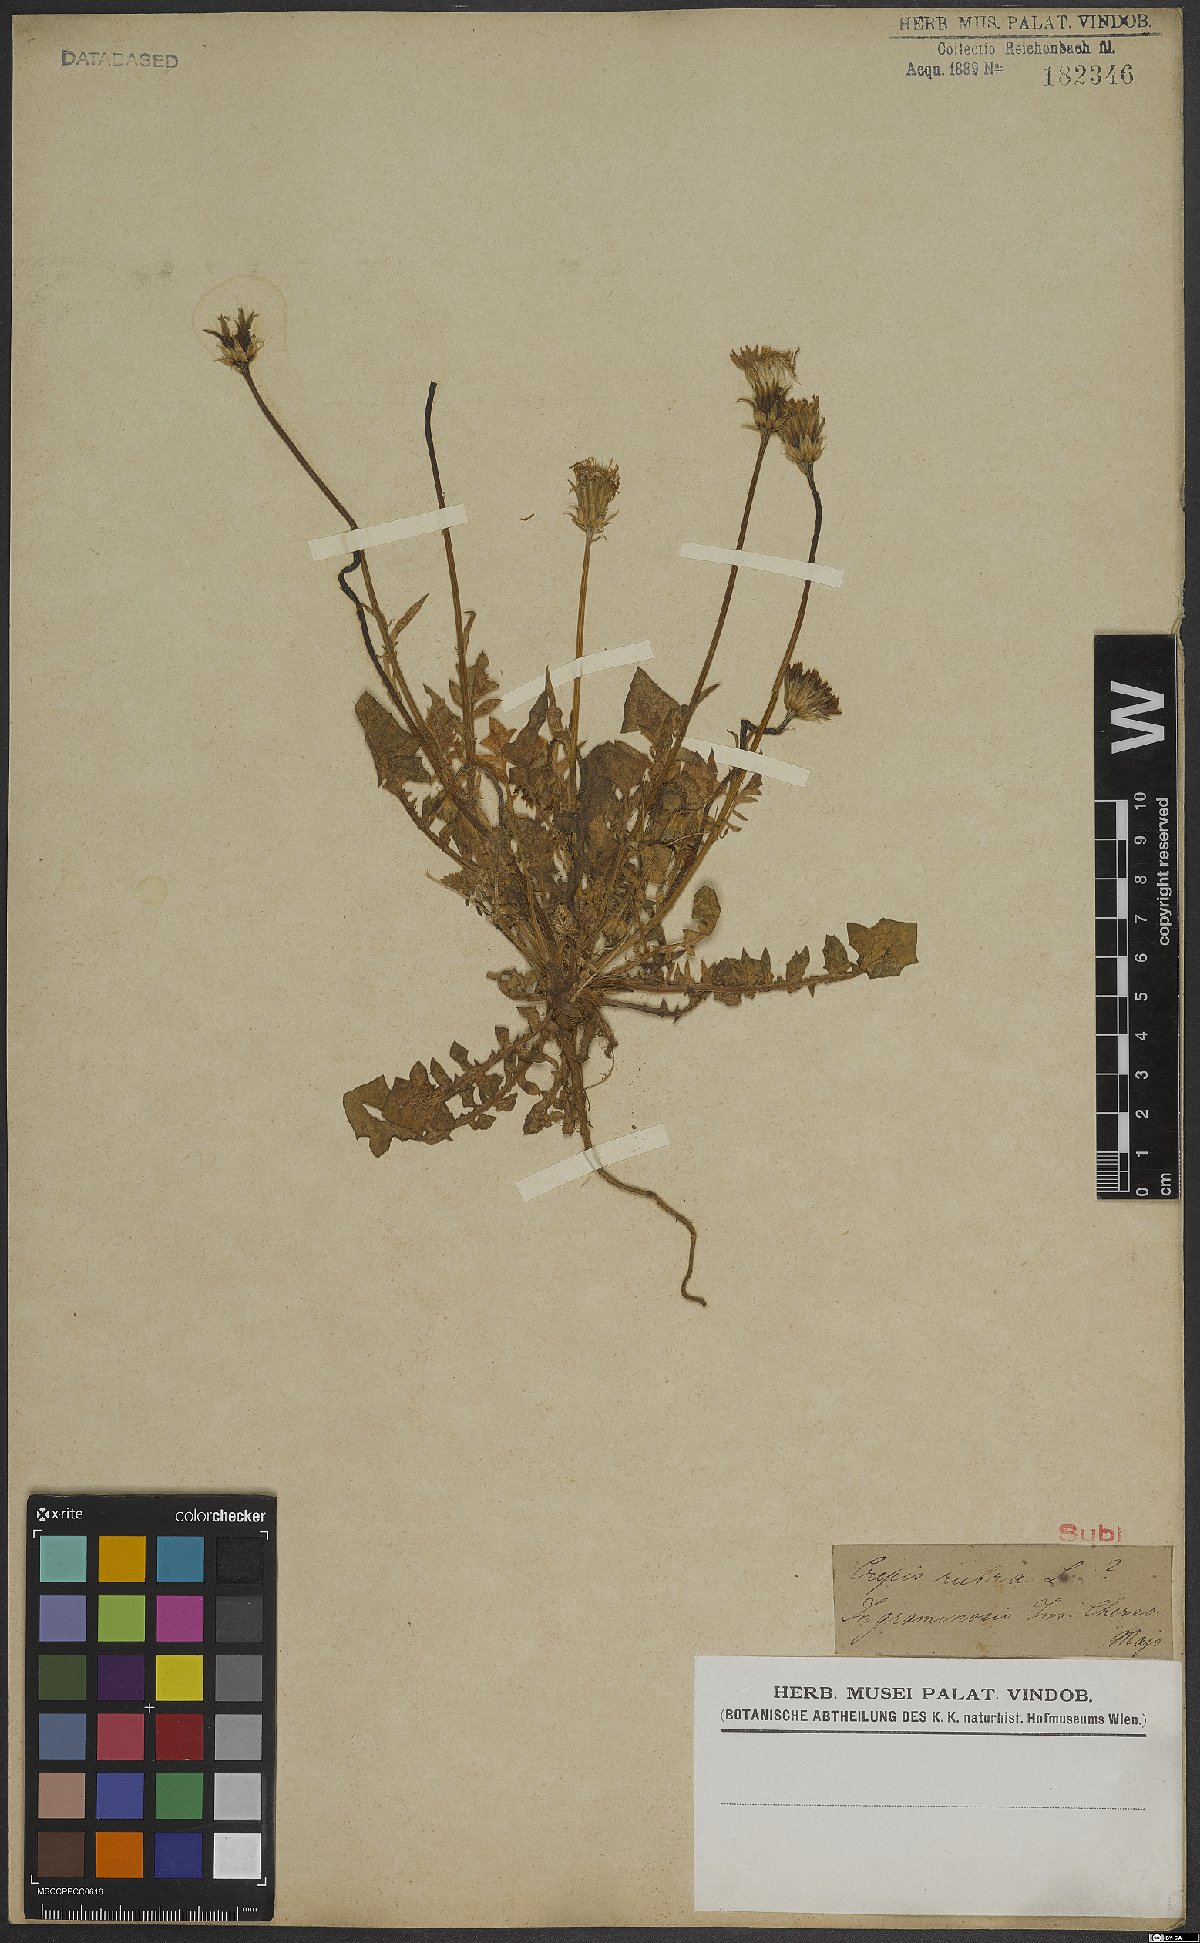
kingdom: Plantae
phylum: Tracheophyta
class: Magnoliopsida
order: Asterales
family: Asteraceae
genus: Crepis
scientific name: Crepis rubra
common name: Pink hawk's-beard
